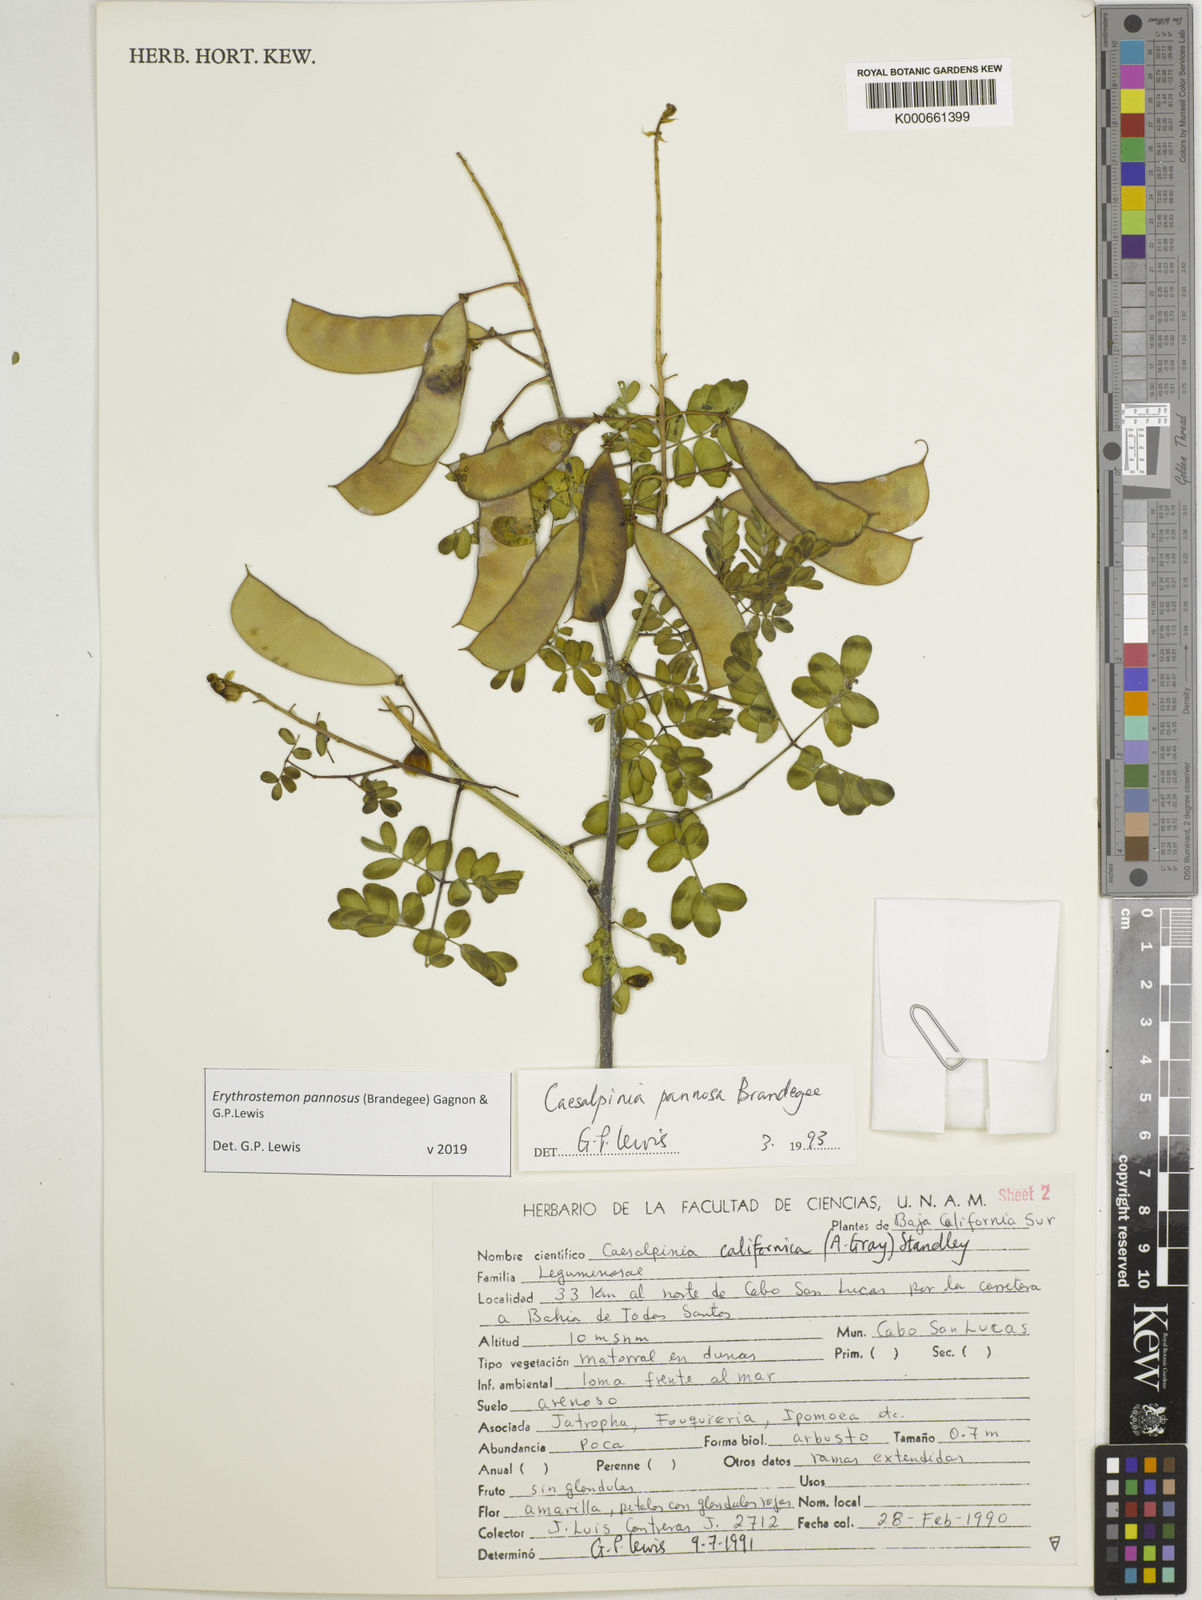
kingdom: Plantae
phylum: Tracheophyta
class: Magnoliopsida
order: Fabales
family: Fabaceae
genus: Erythrostemon
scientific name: Erythrostemon pannosus
